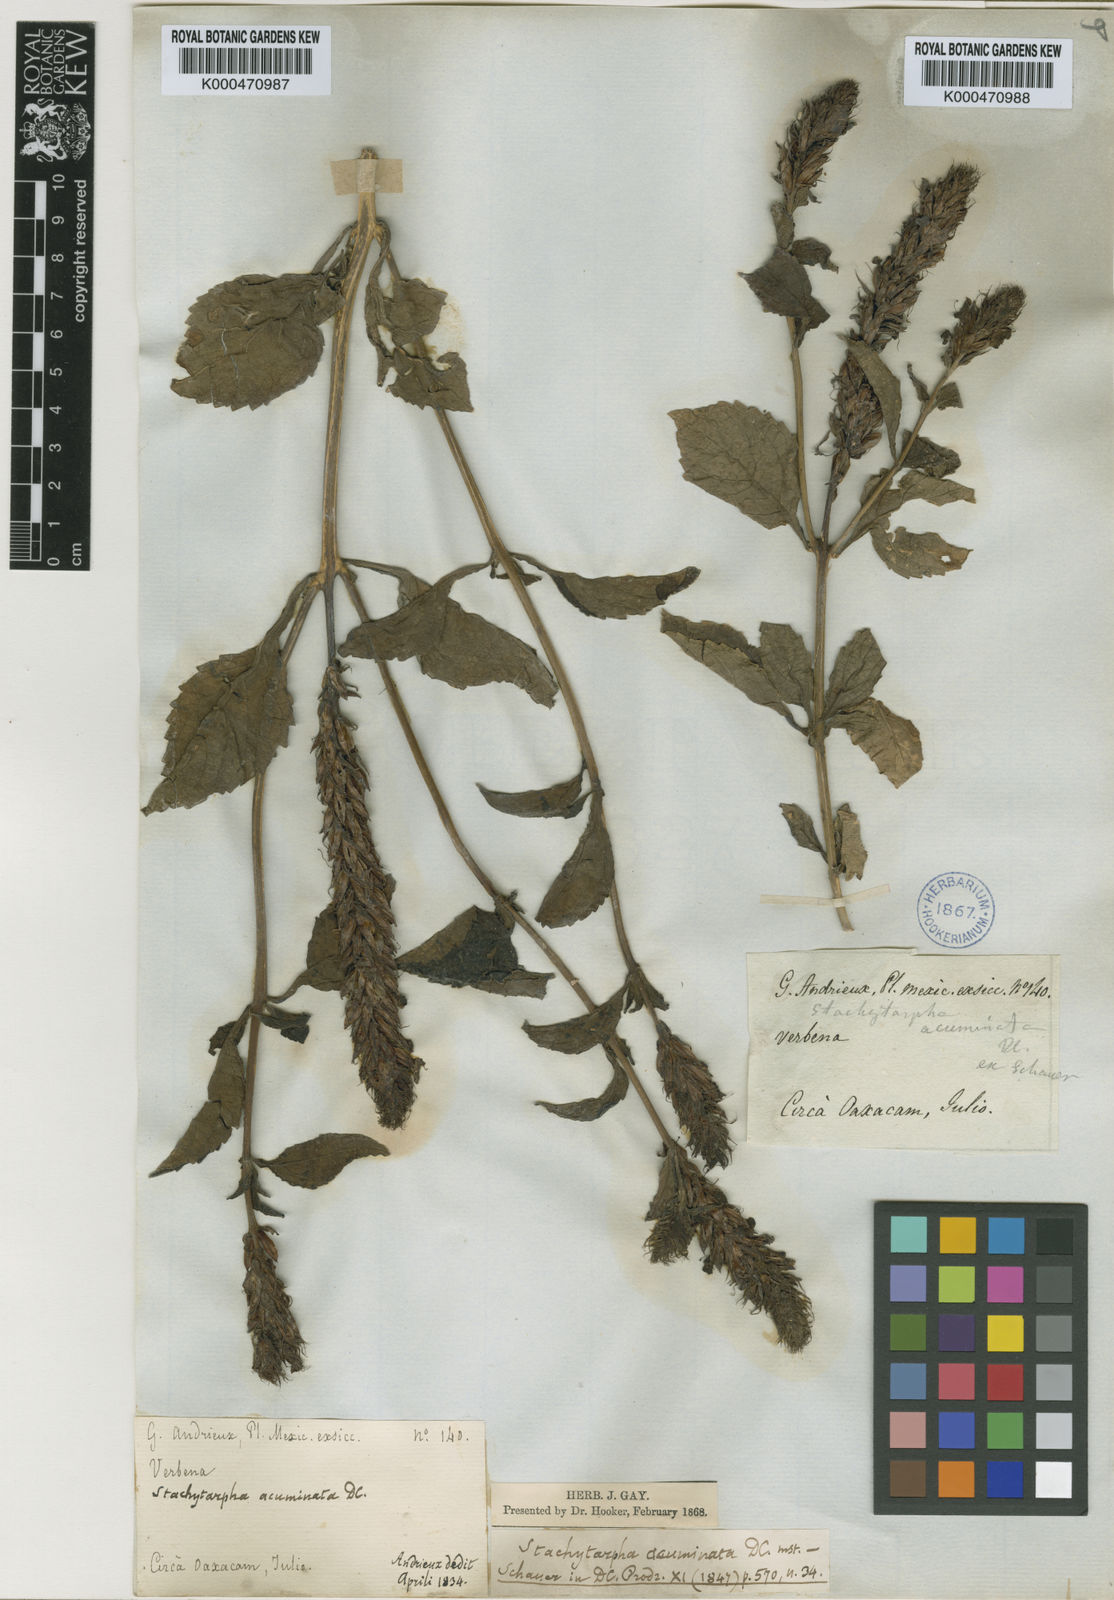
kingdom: Plantae
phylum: Tracheophyta
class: Magnoliopsida
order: Lamiales
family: Verbenaceae
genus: Stachytarpheta
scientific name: Stachytarpheta acuminata
